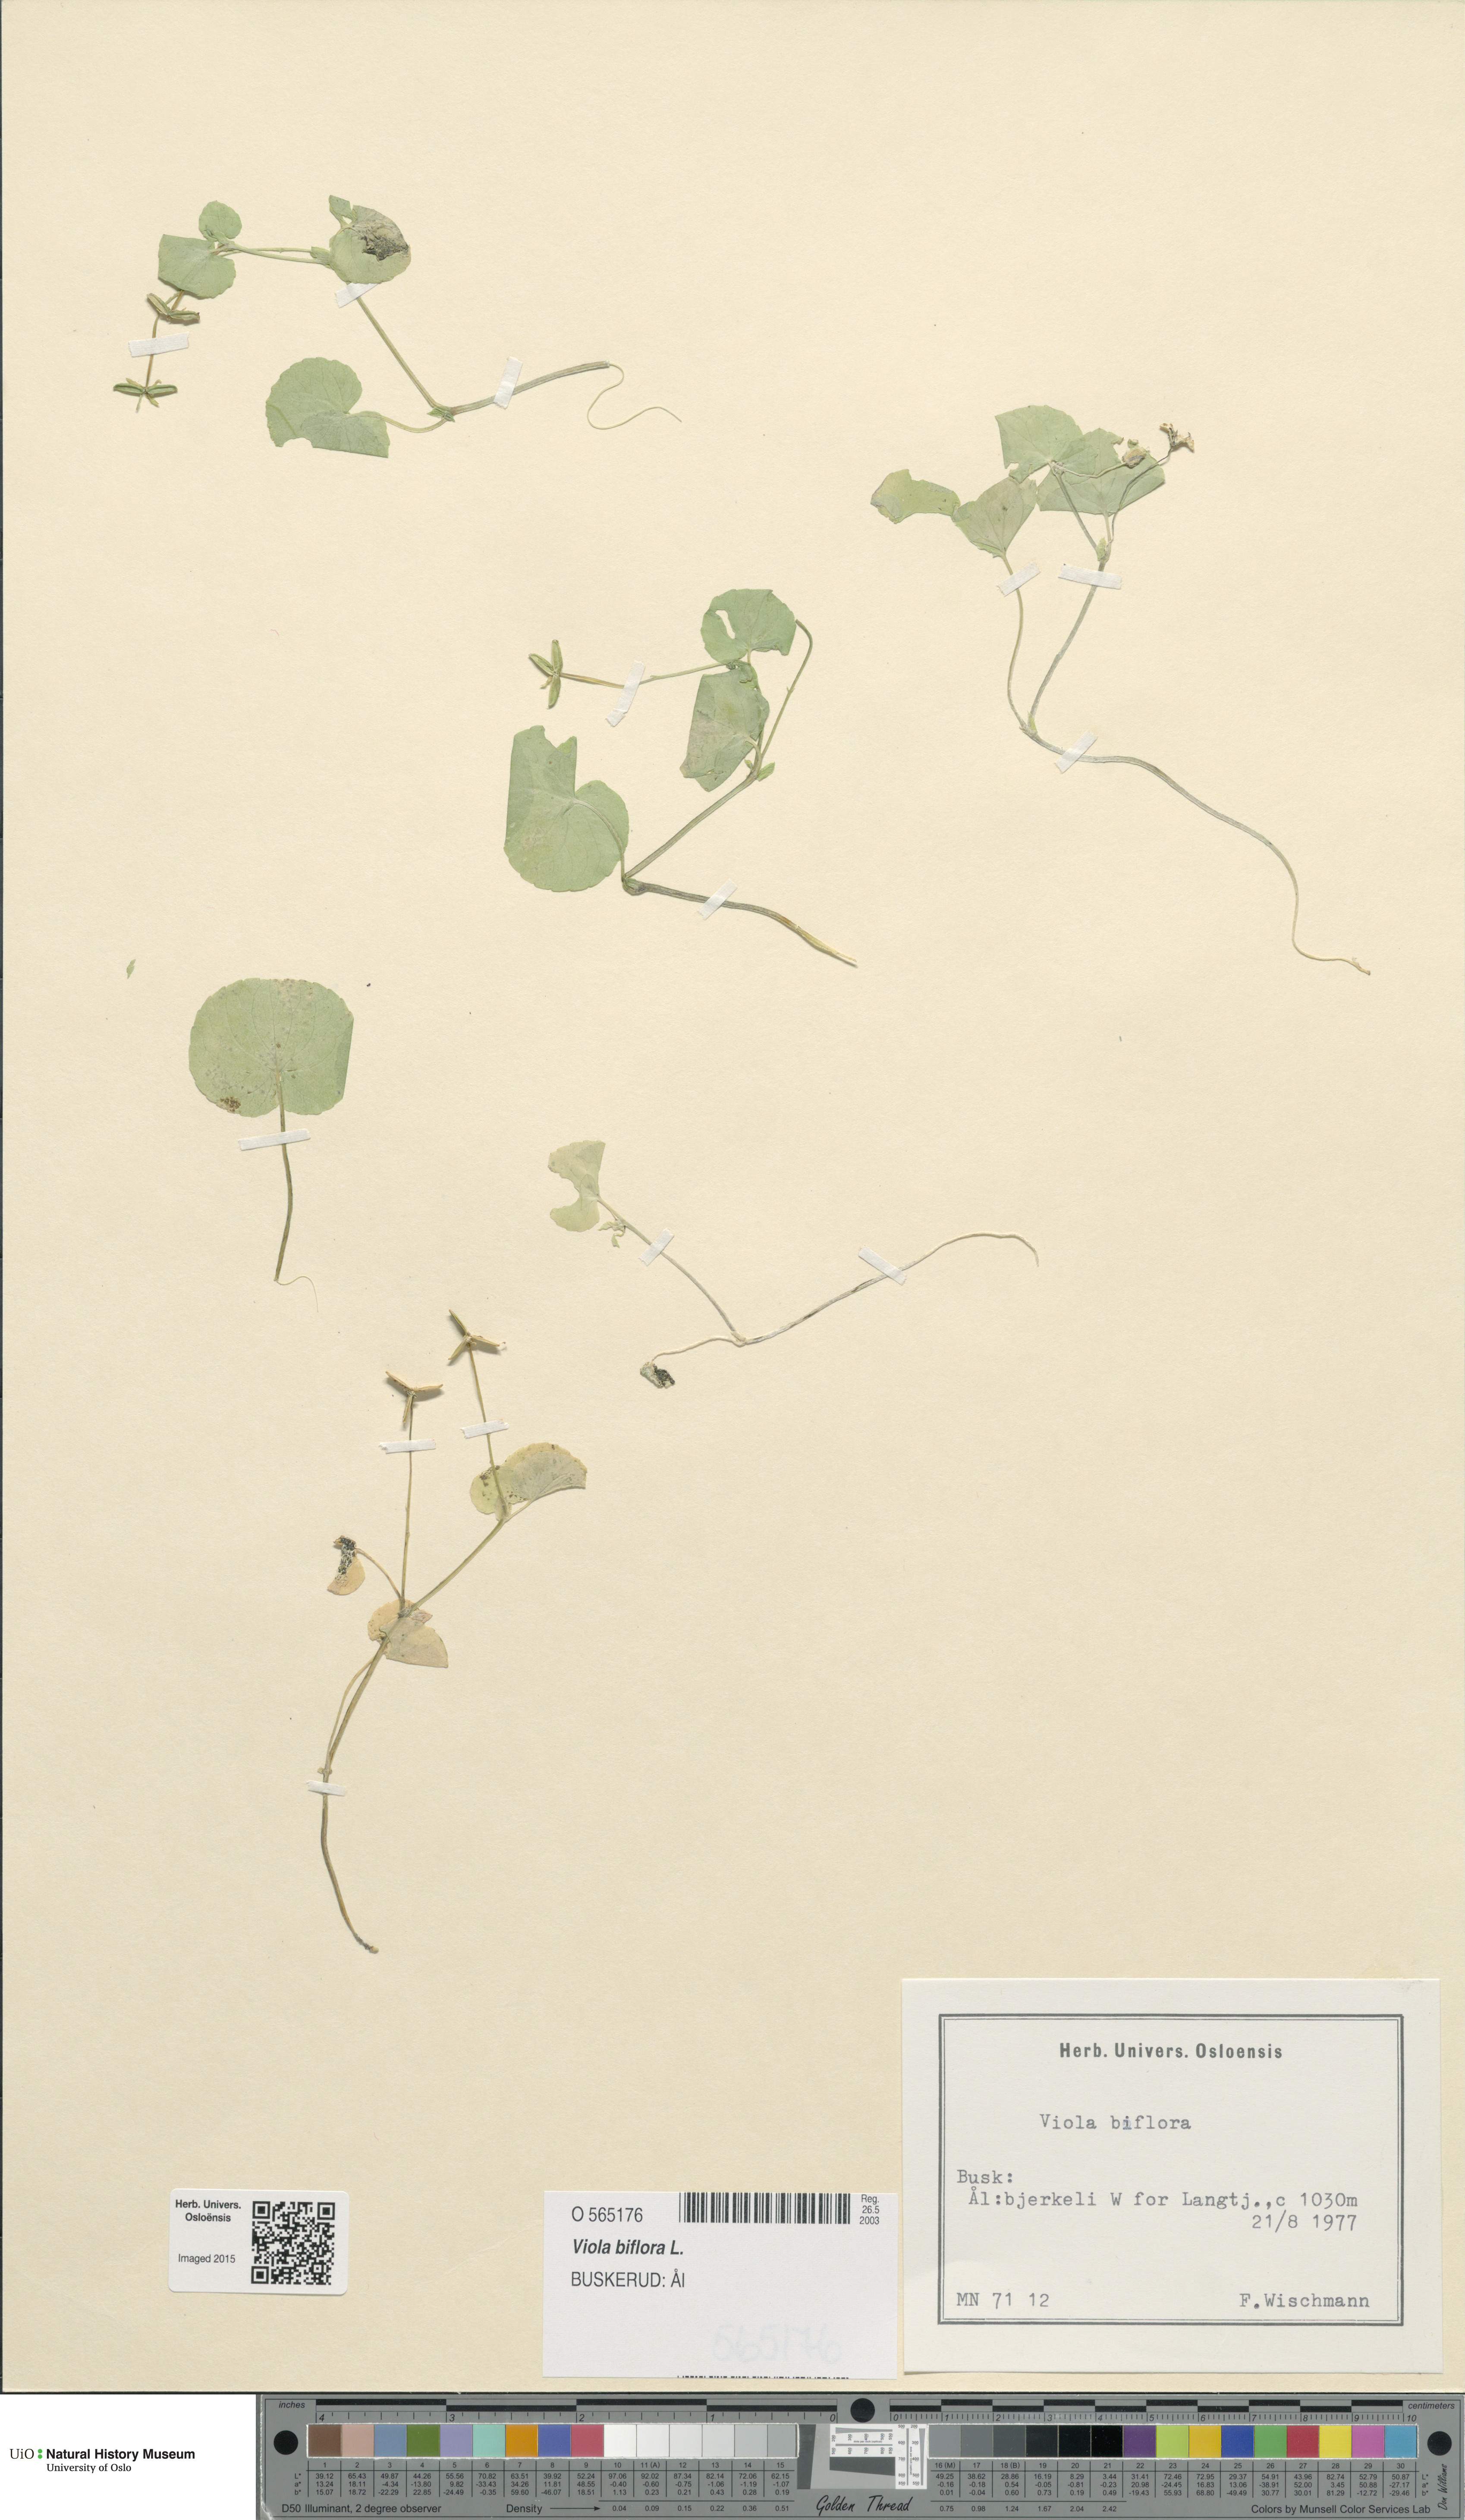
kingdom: Plantae
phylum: Tracheophyta
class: Magnoliopsida
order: Malpighiales
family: Violaceae
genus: Viola
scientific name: Viola biflora
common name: Alpine yellow violet
